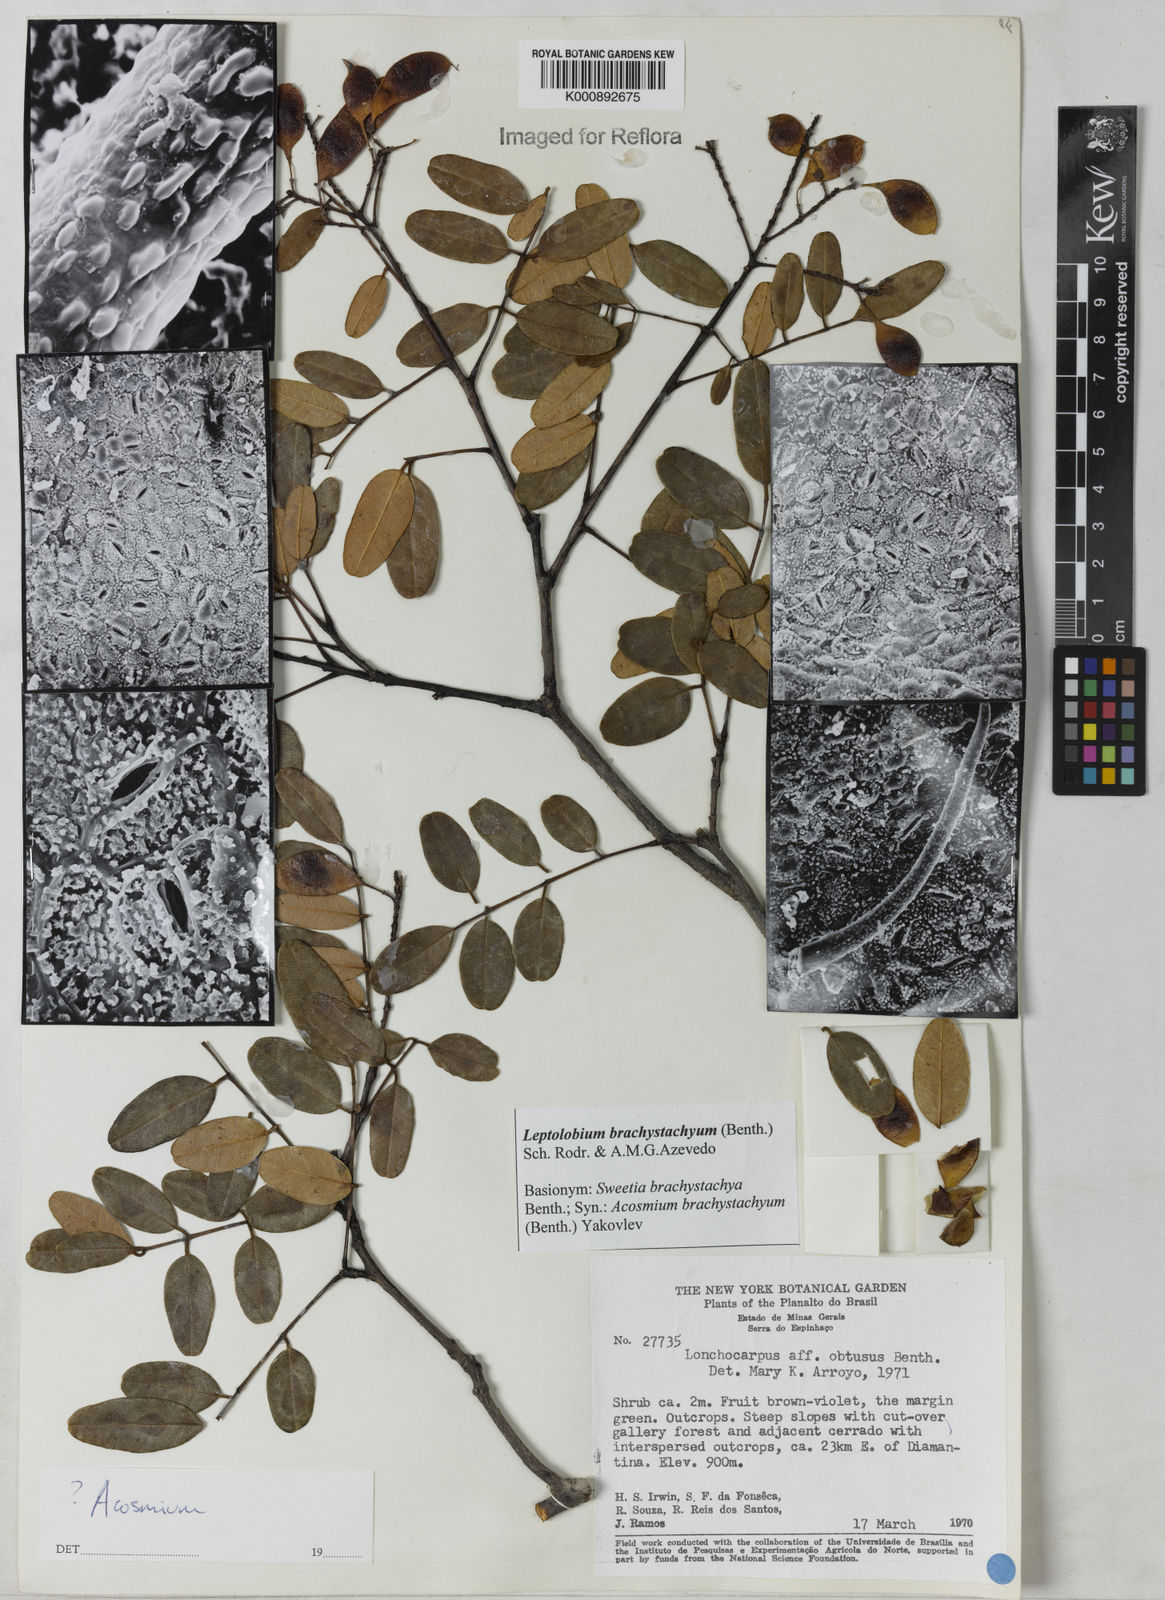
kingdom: Plantae
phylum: Tracheophyta
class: Magnoliopsida
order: Fabales
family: Fabaceae
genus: Leptolobium
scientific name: Leptolobium brachystachyum
